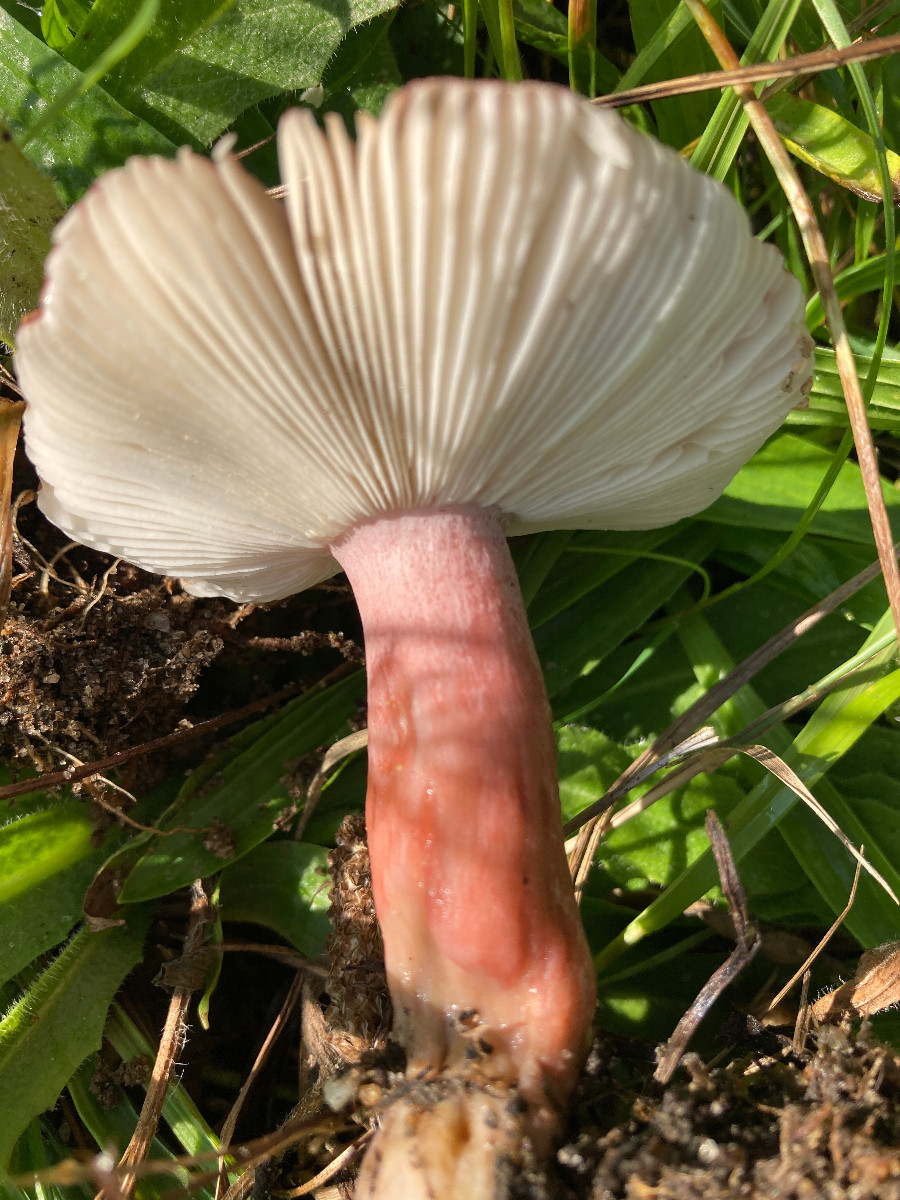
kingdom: Fungi
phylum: Basidiomycota
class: Agaricomycetes
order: Russulales
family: Russulaceae
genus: Russula
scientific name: Russula queletii
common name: Quélets skørhat
